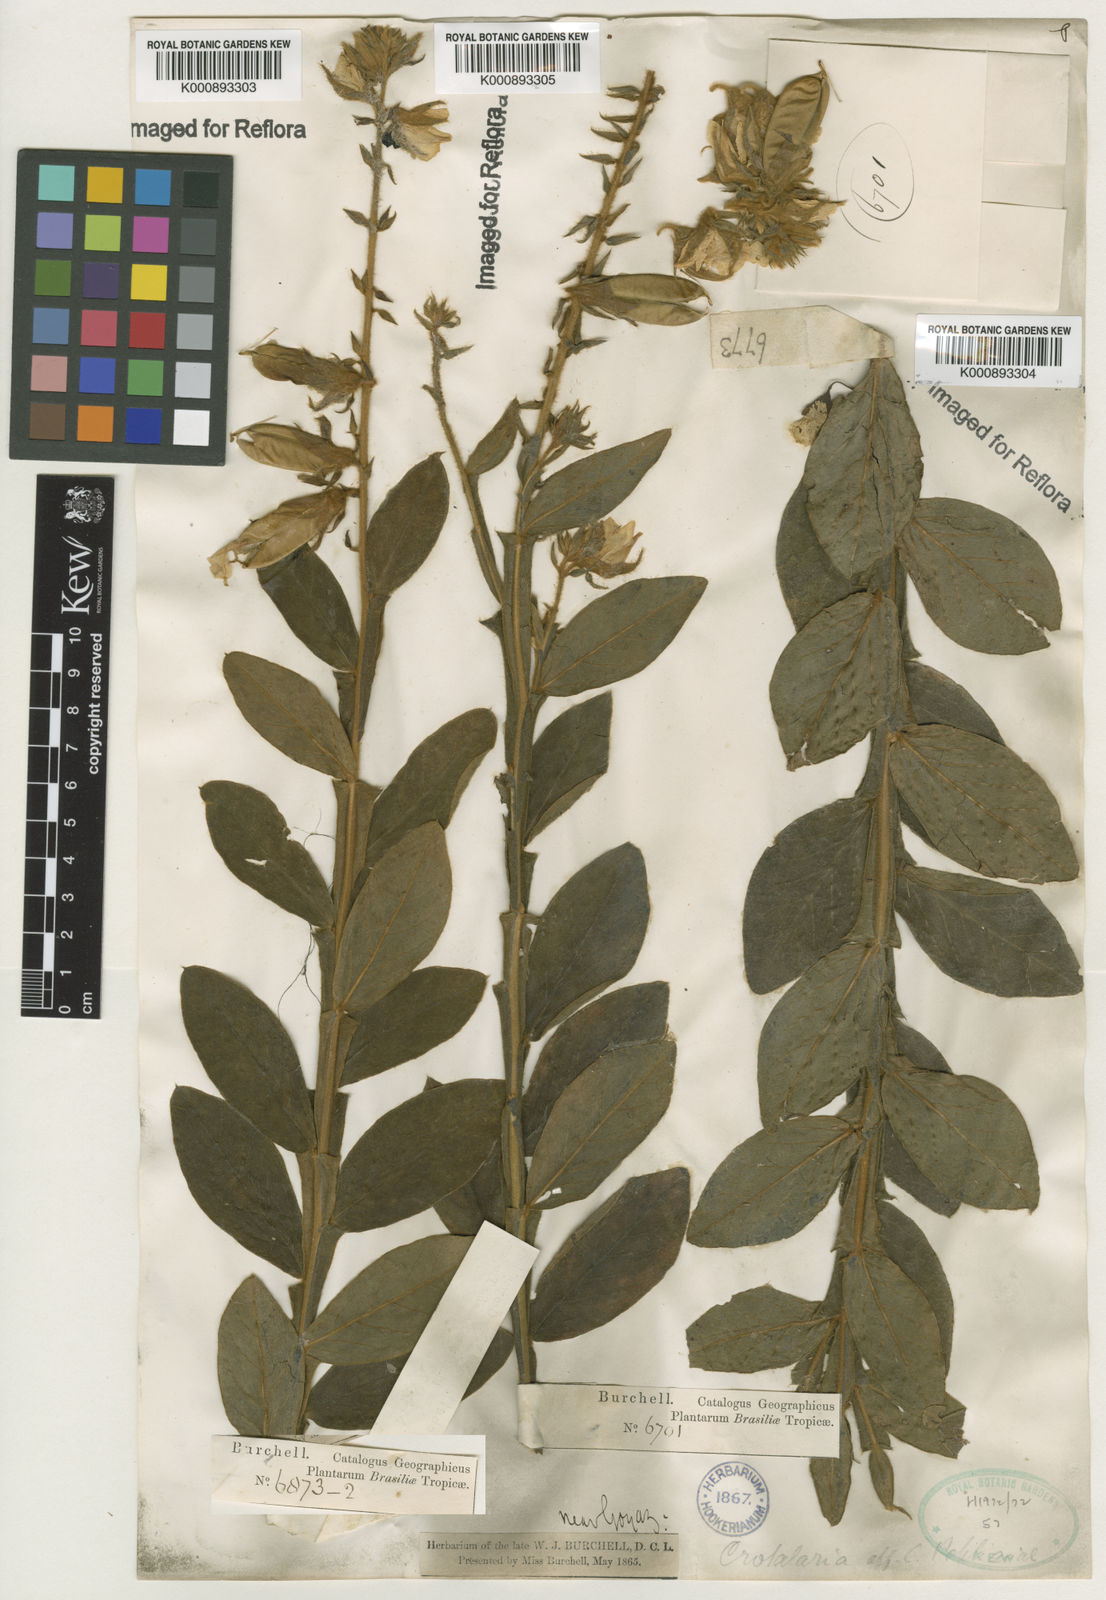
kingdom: Plantae
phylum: Tracheophyta
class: Magnoliopsida
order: Fabales
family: Fabaceae
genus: Crotalaria
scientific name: Crotalaria breviflora
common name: Short-flower crotalaria
